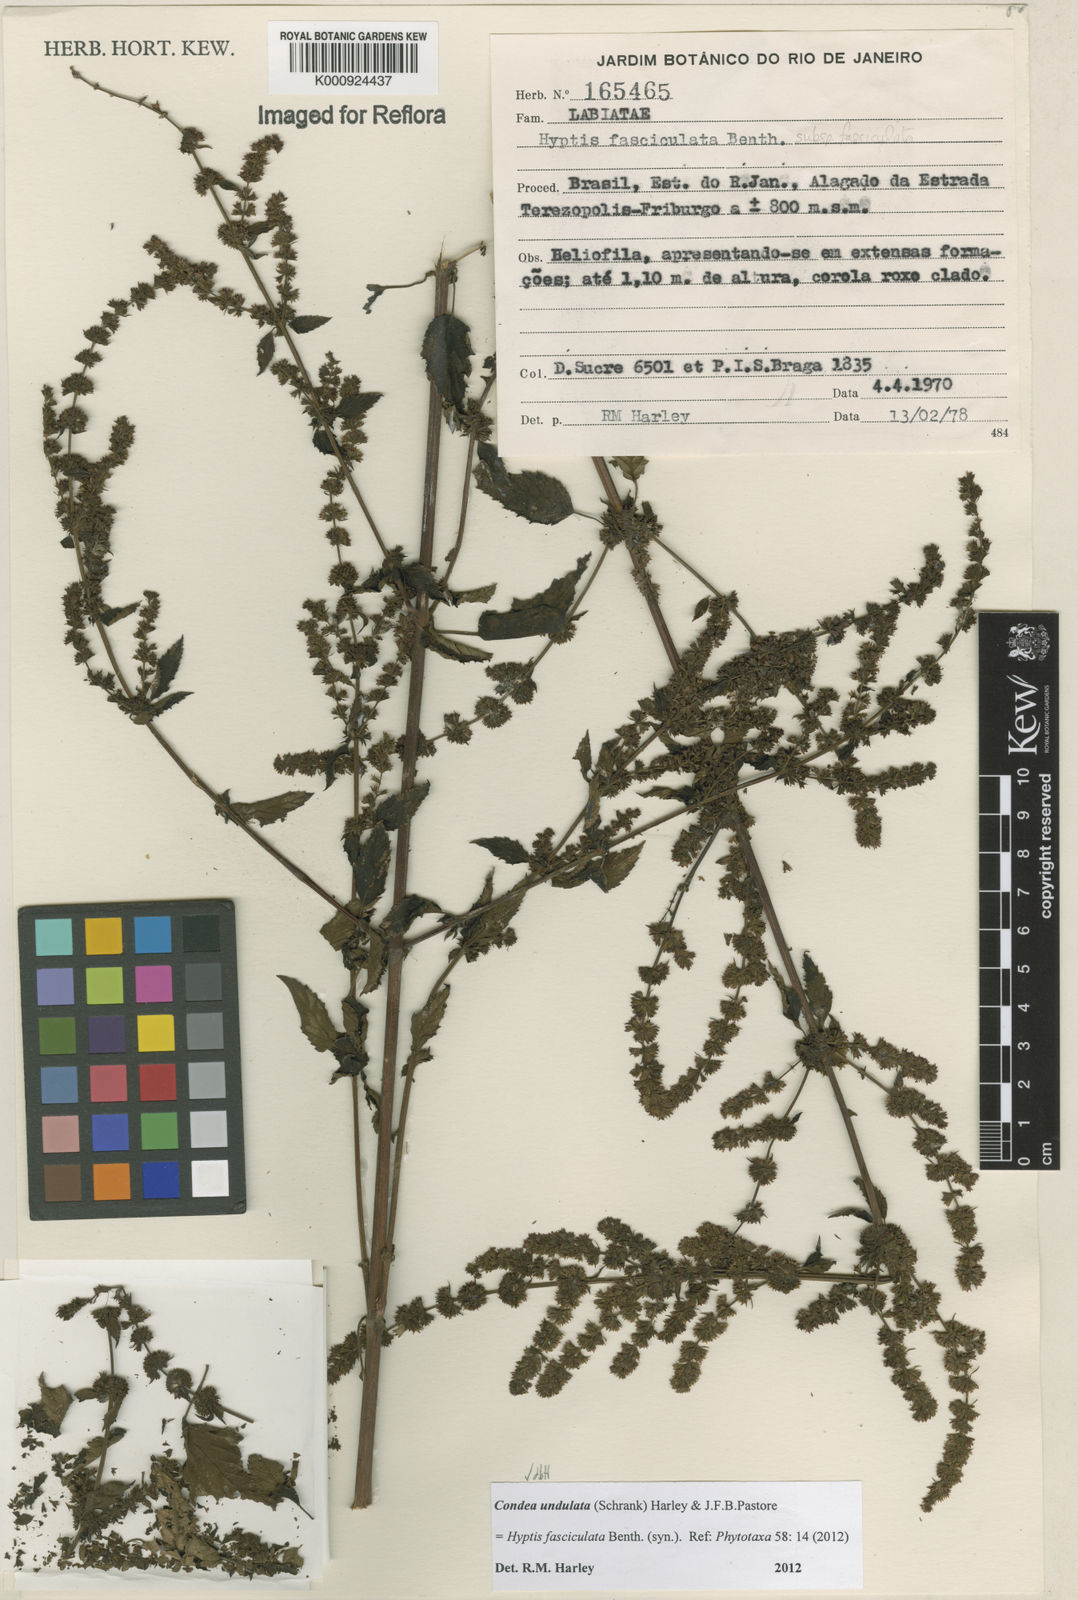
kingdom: Plantae
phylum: Tracheophyta
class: Magnoliopsida
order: Lamiales
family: Lamiaceae
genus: Condea
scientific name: Condea undulata
